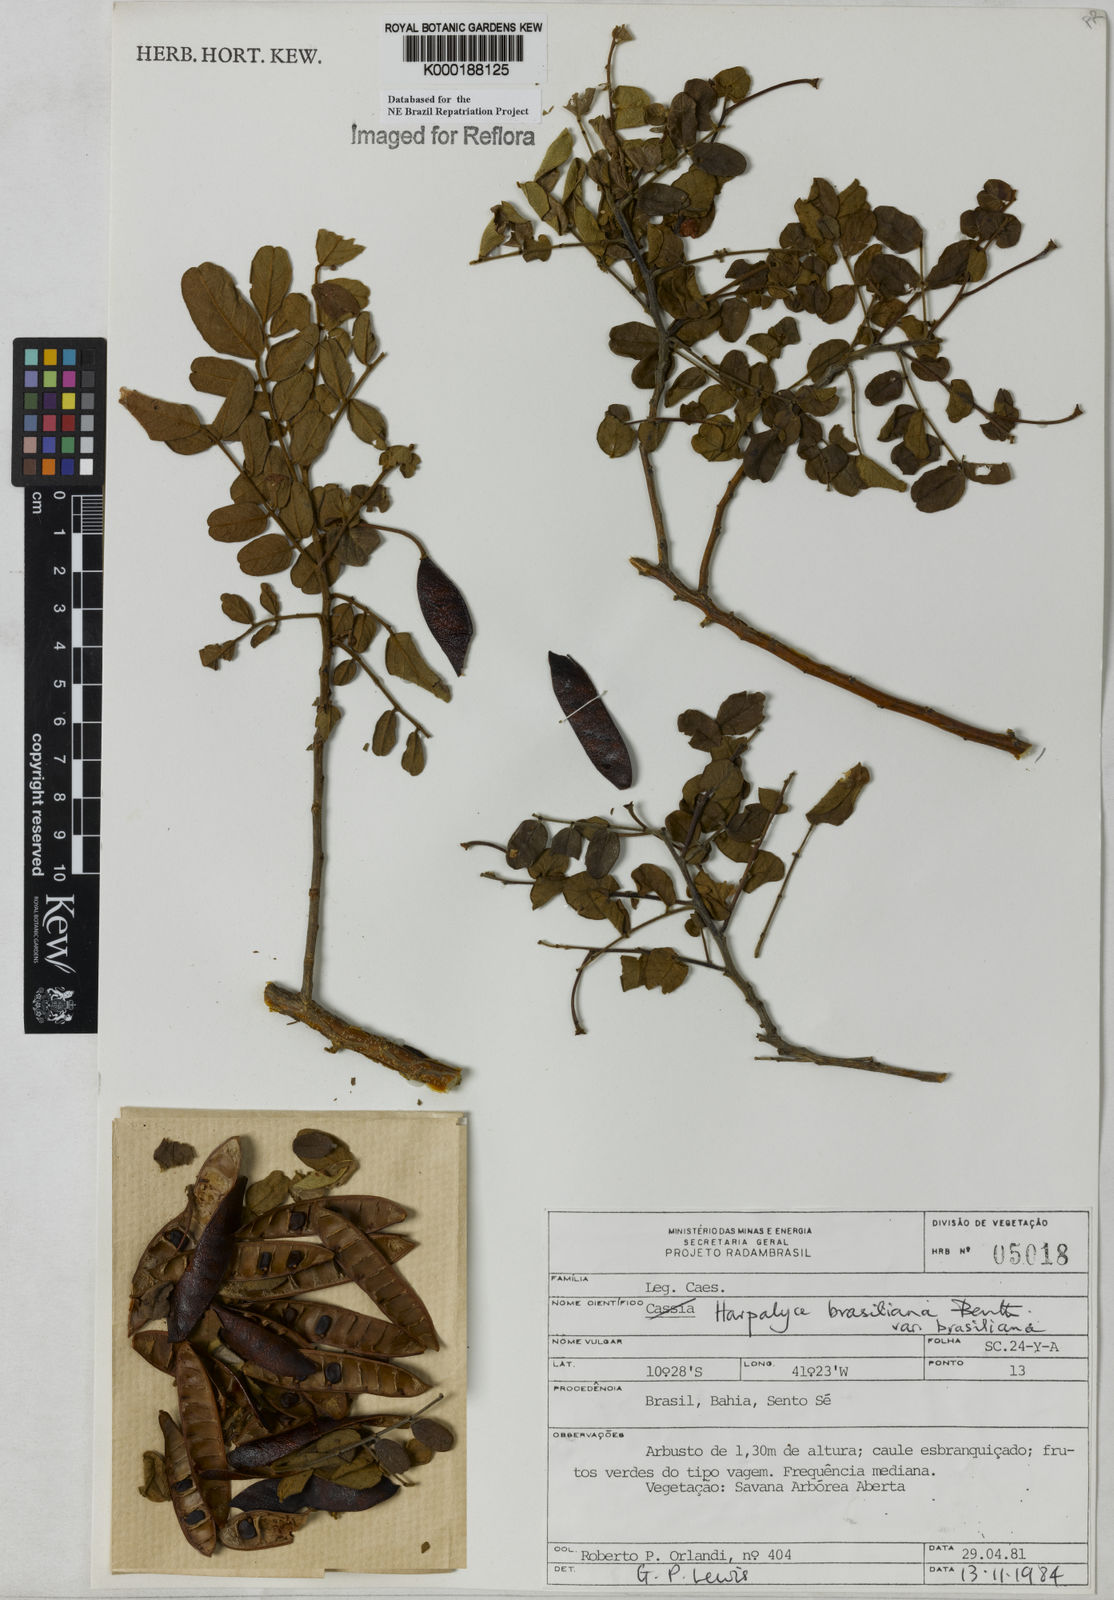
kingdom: Plantae
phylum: Tracheophyta
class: Magnoliopsida
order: Fabales
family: Fabaceae
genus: Harpalyce
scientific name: Harpalyce brasiliana
